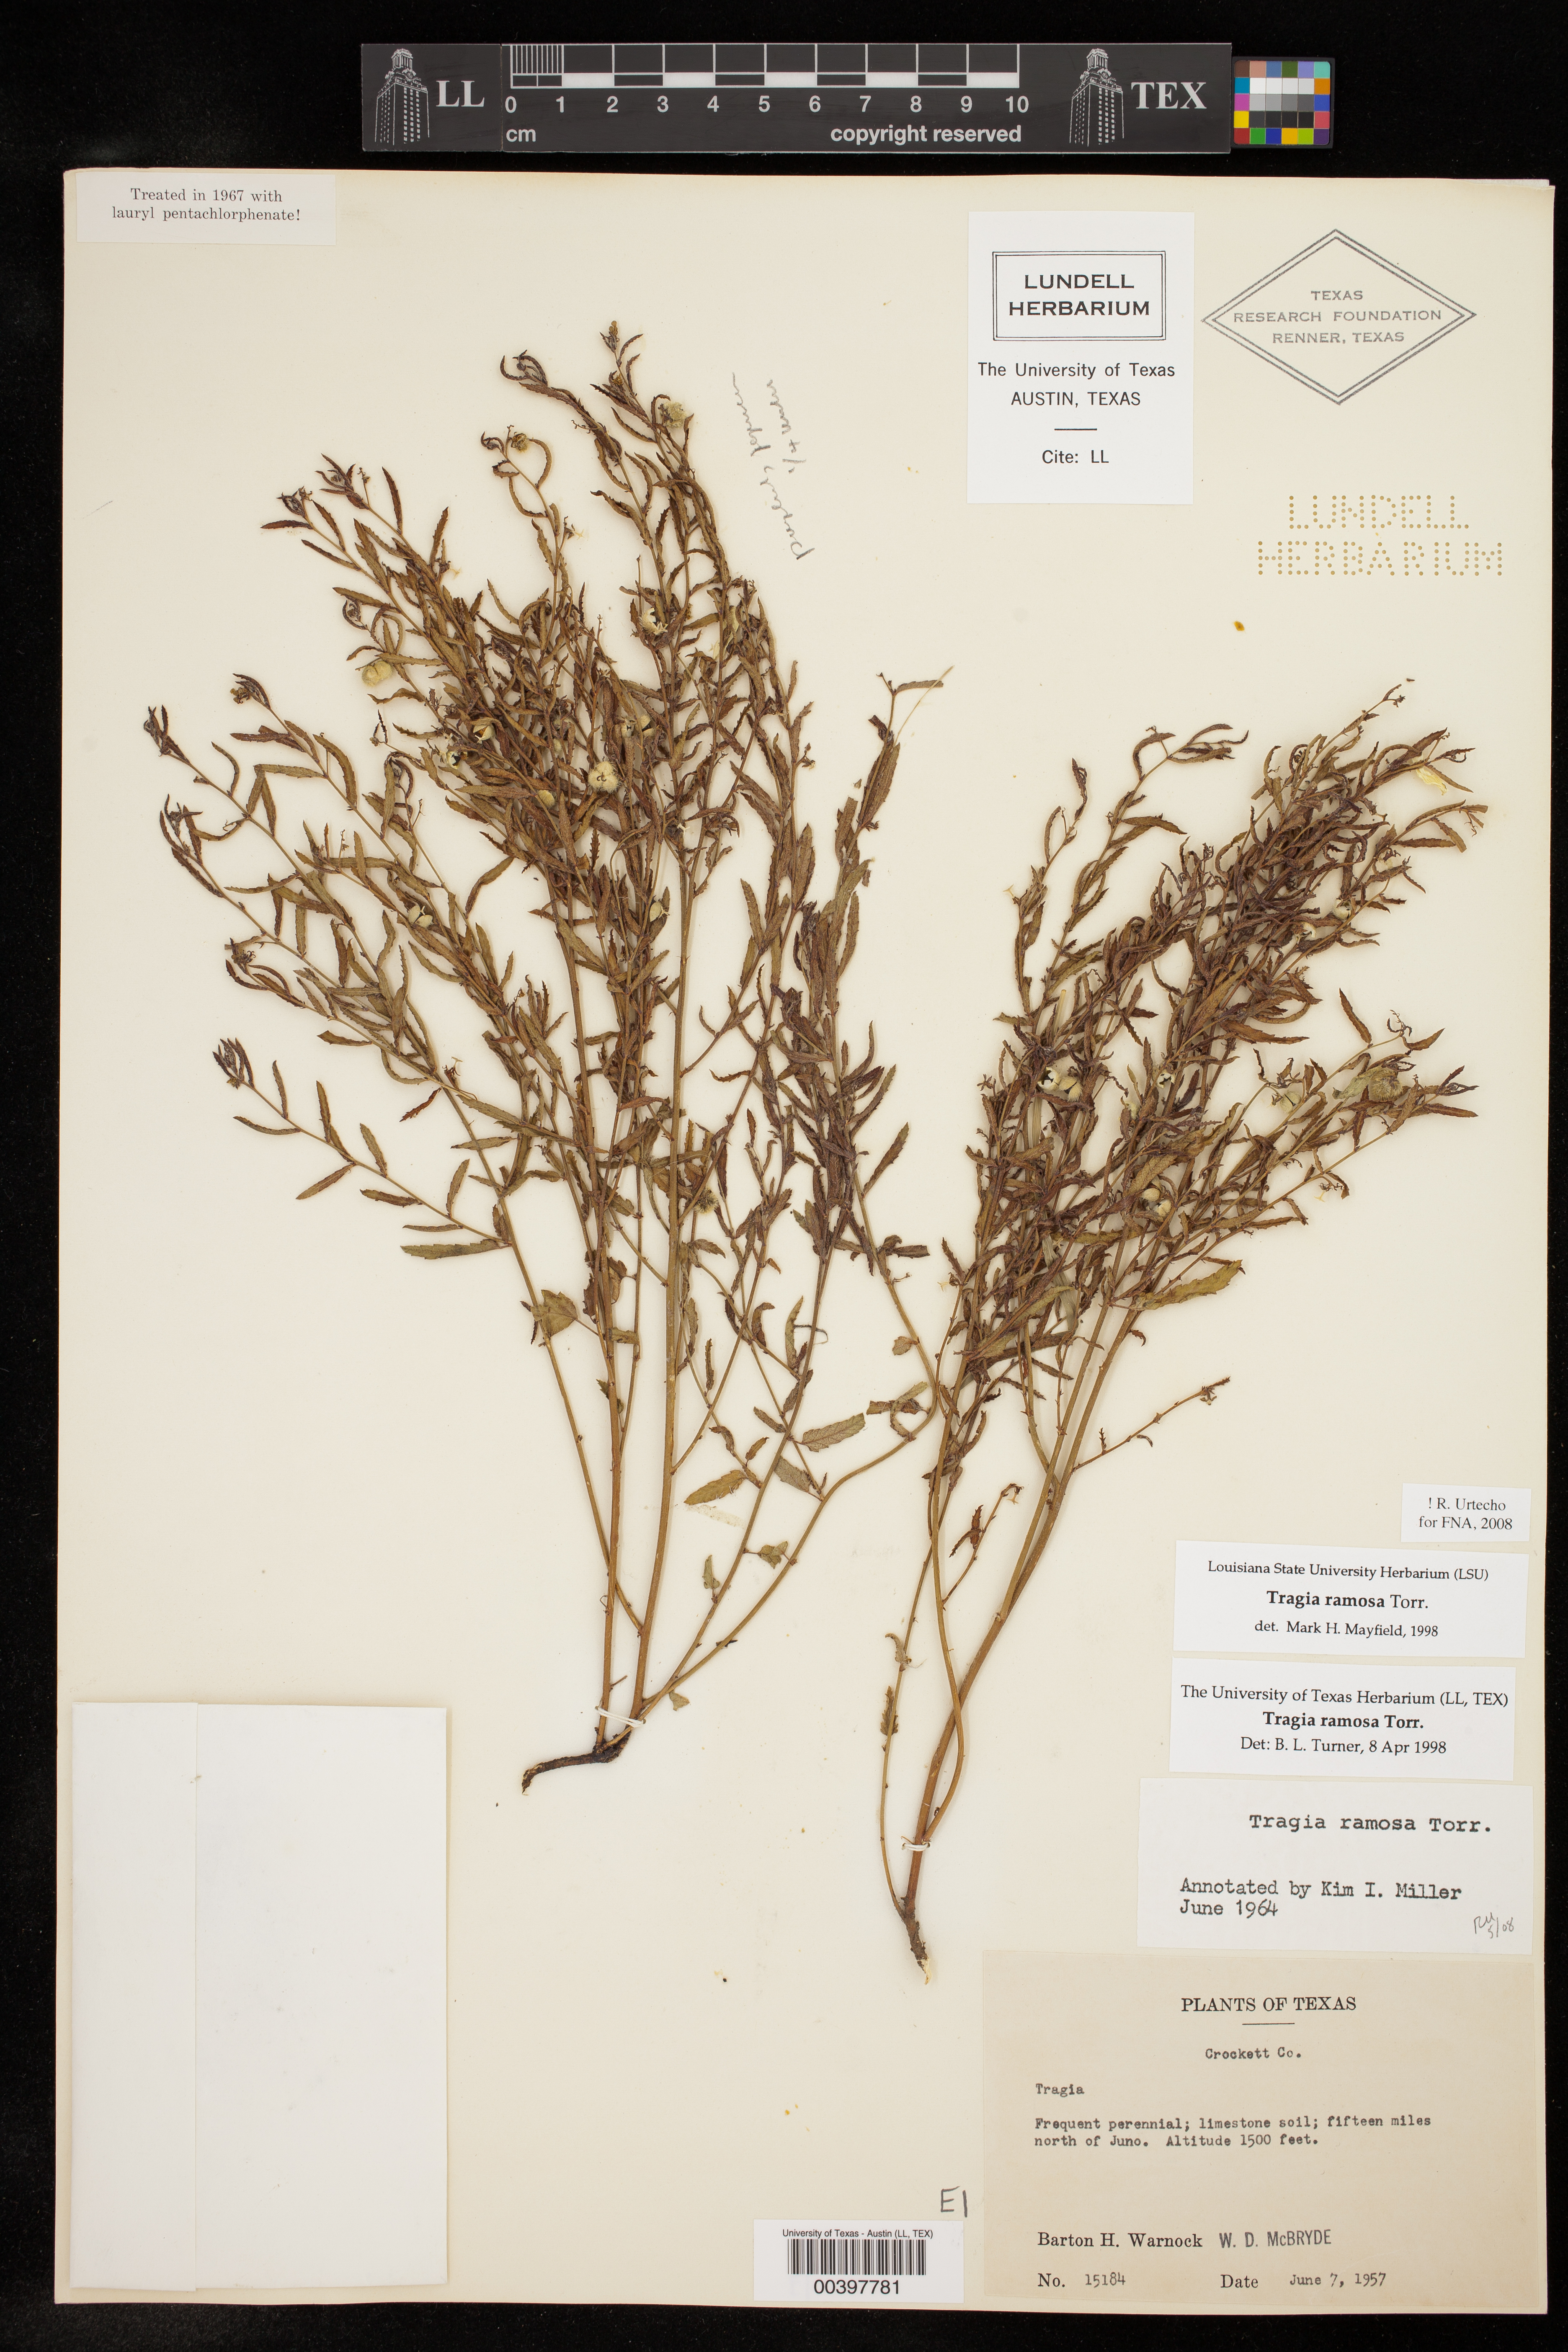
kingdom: Plantae
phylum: Tracheophyta
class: Magnoliopsida
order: Malpighiales
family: Euphorbiaceae
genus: Tragia
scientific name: Tragia ramosa
